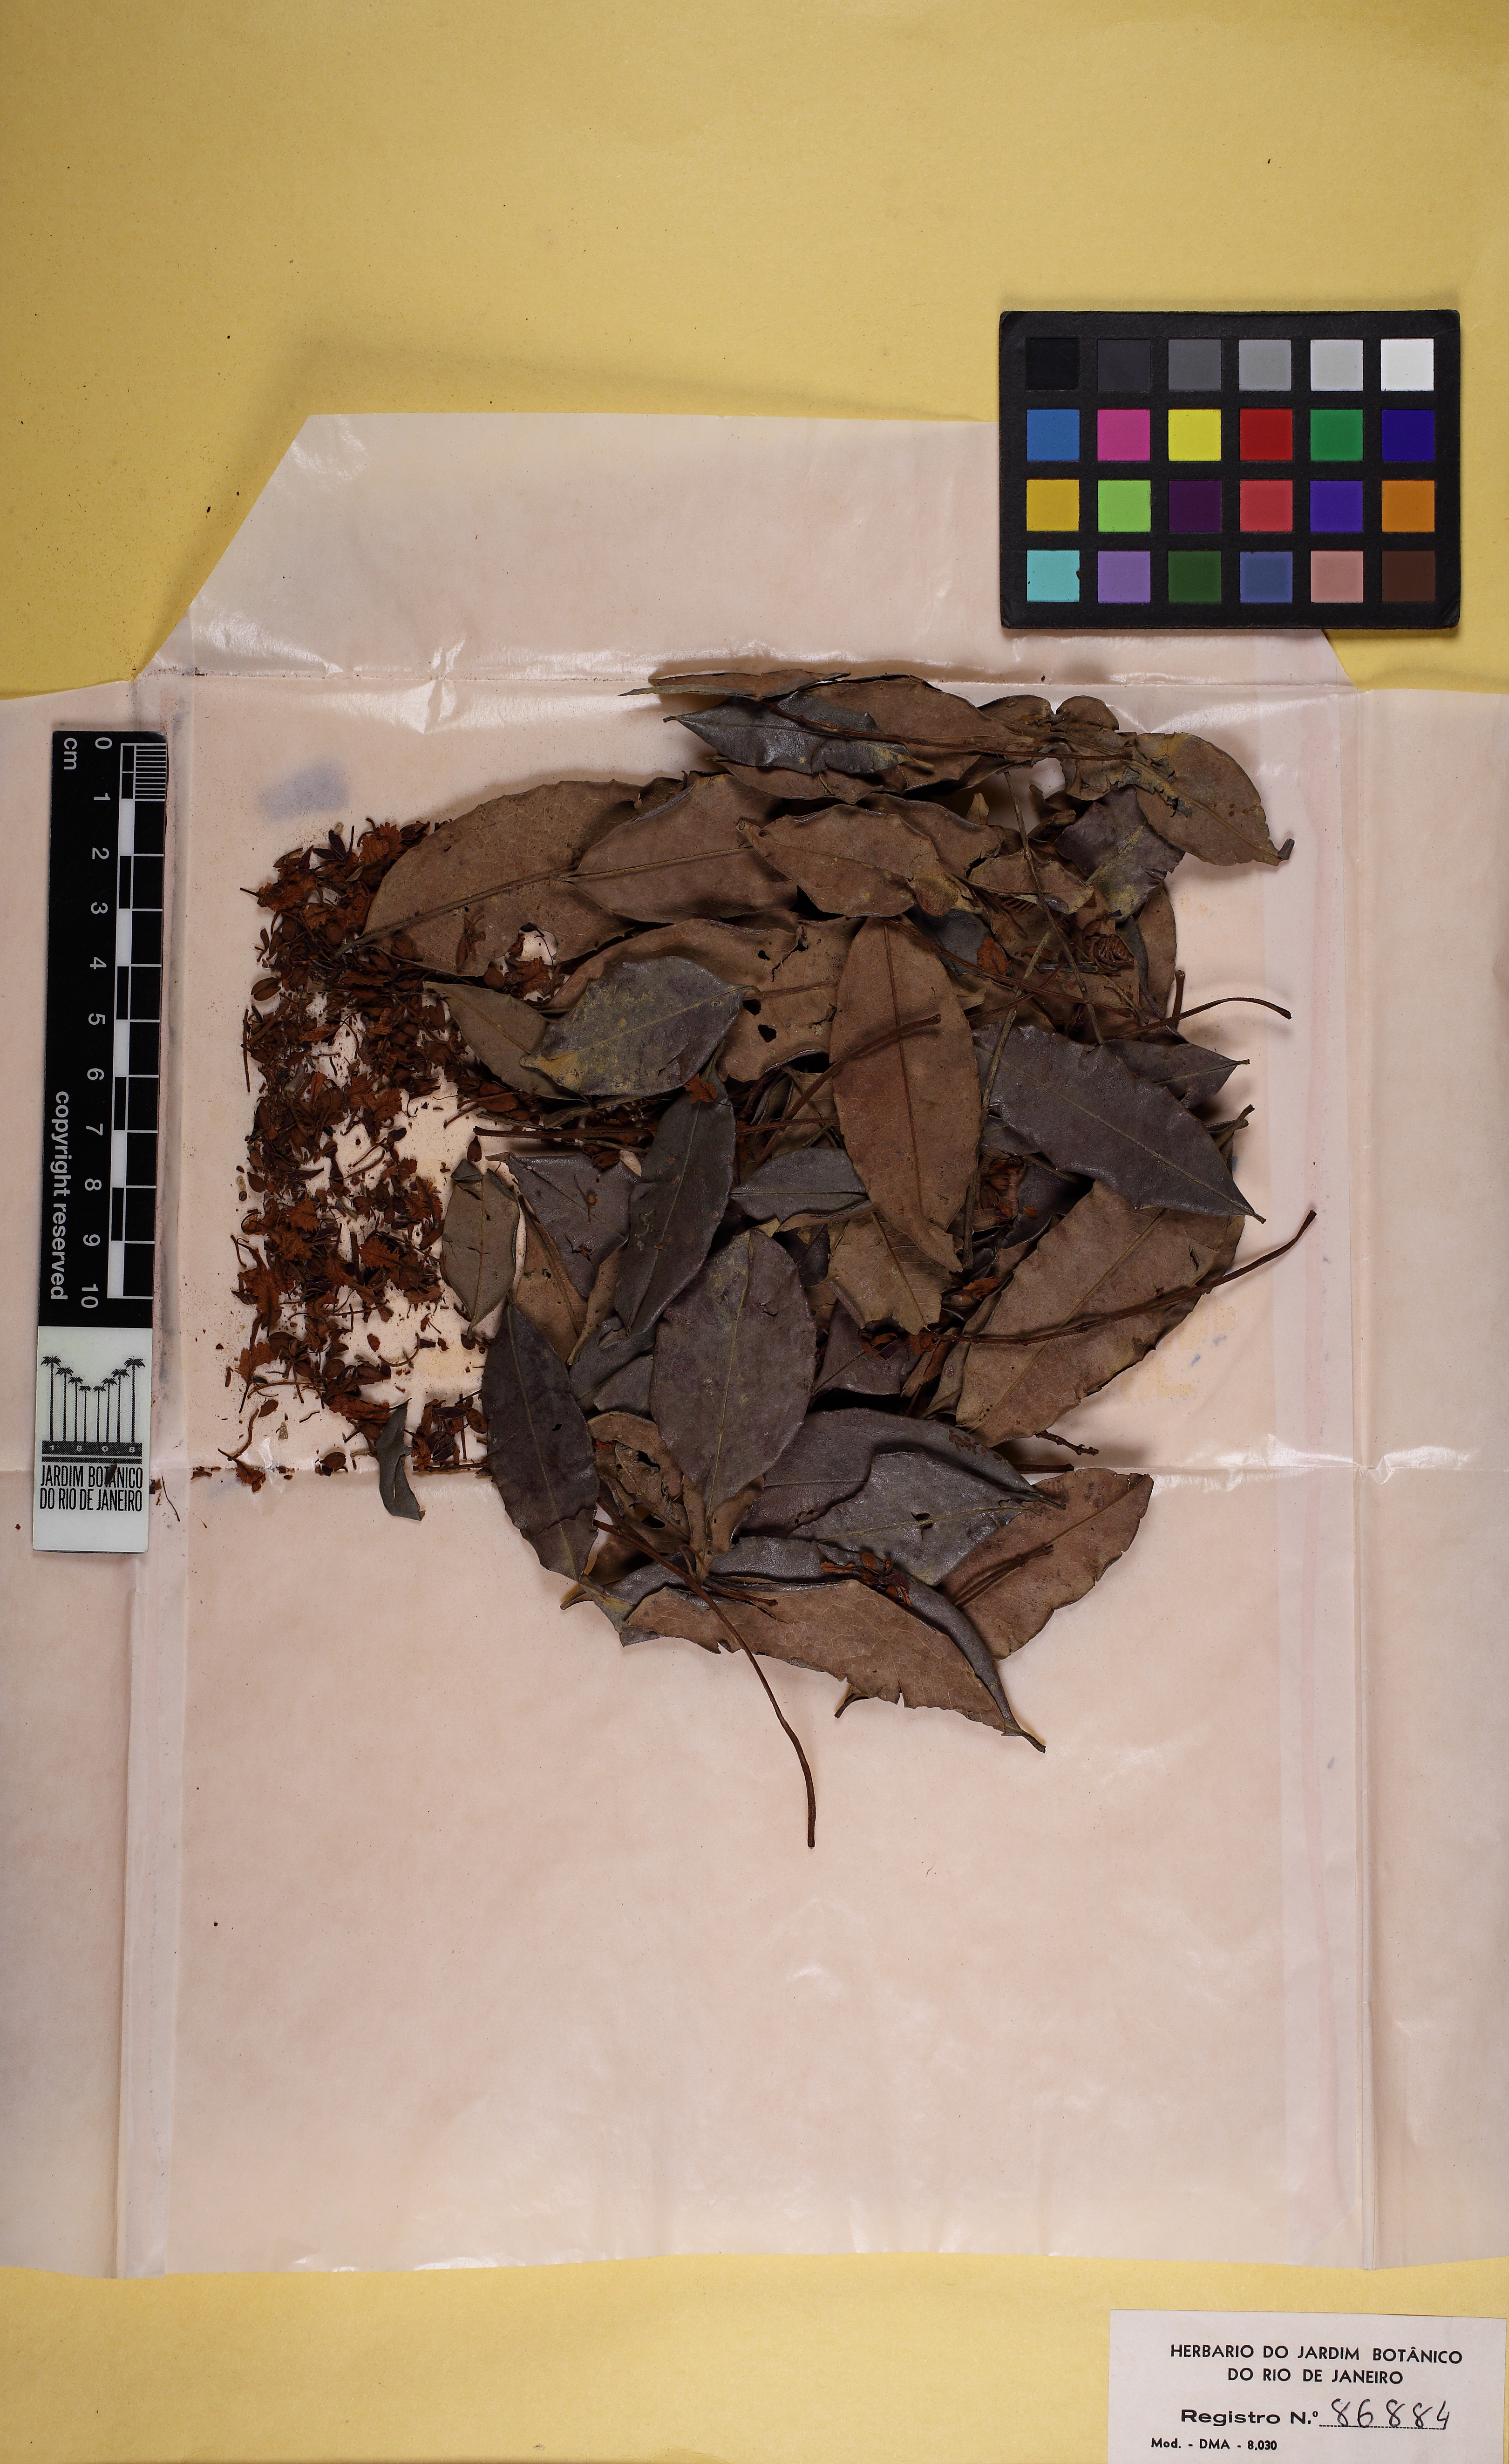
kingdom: Plantae
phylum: Tracheophyta
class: Magnoliopsida
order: Fabales
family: Fabaceae
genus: Melanoxylon
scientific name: Melanoxylon brauna
